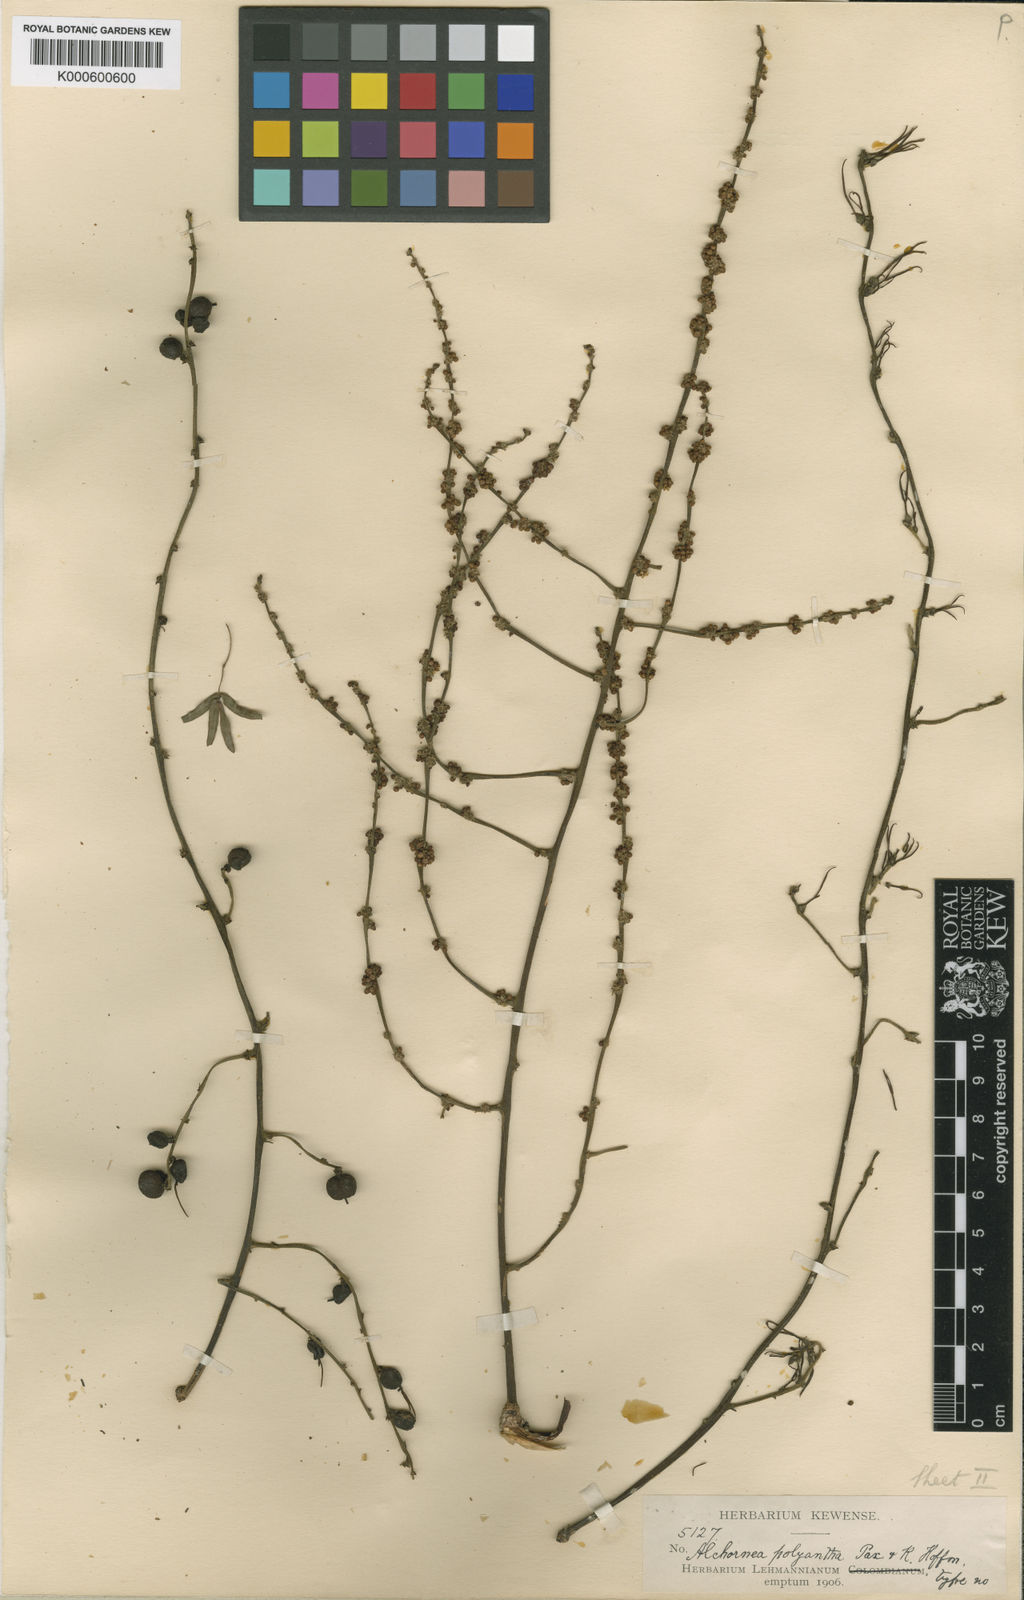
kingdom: Plantae
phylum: Tracheophyta
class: Magnoliopsida
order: Malpighiales
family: Euphorbiaceae
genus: Alchornea
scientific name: Alchornea latifolia
